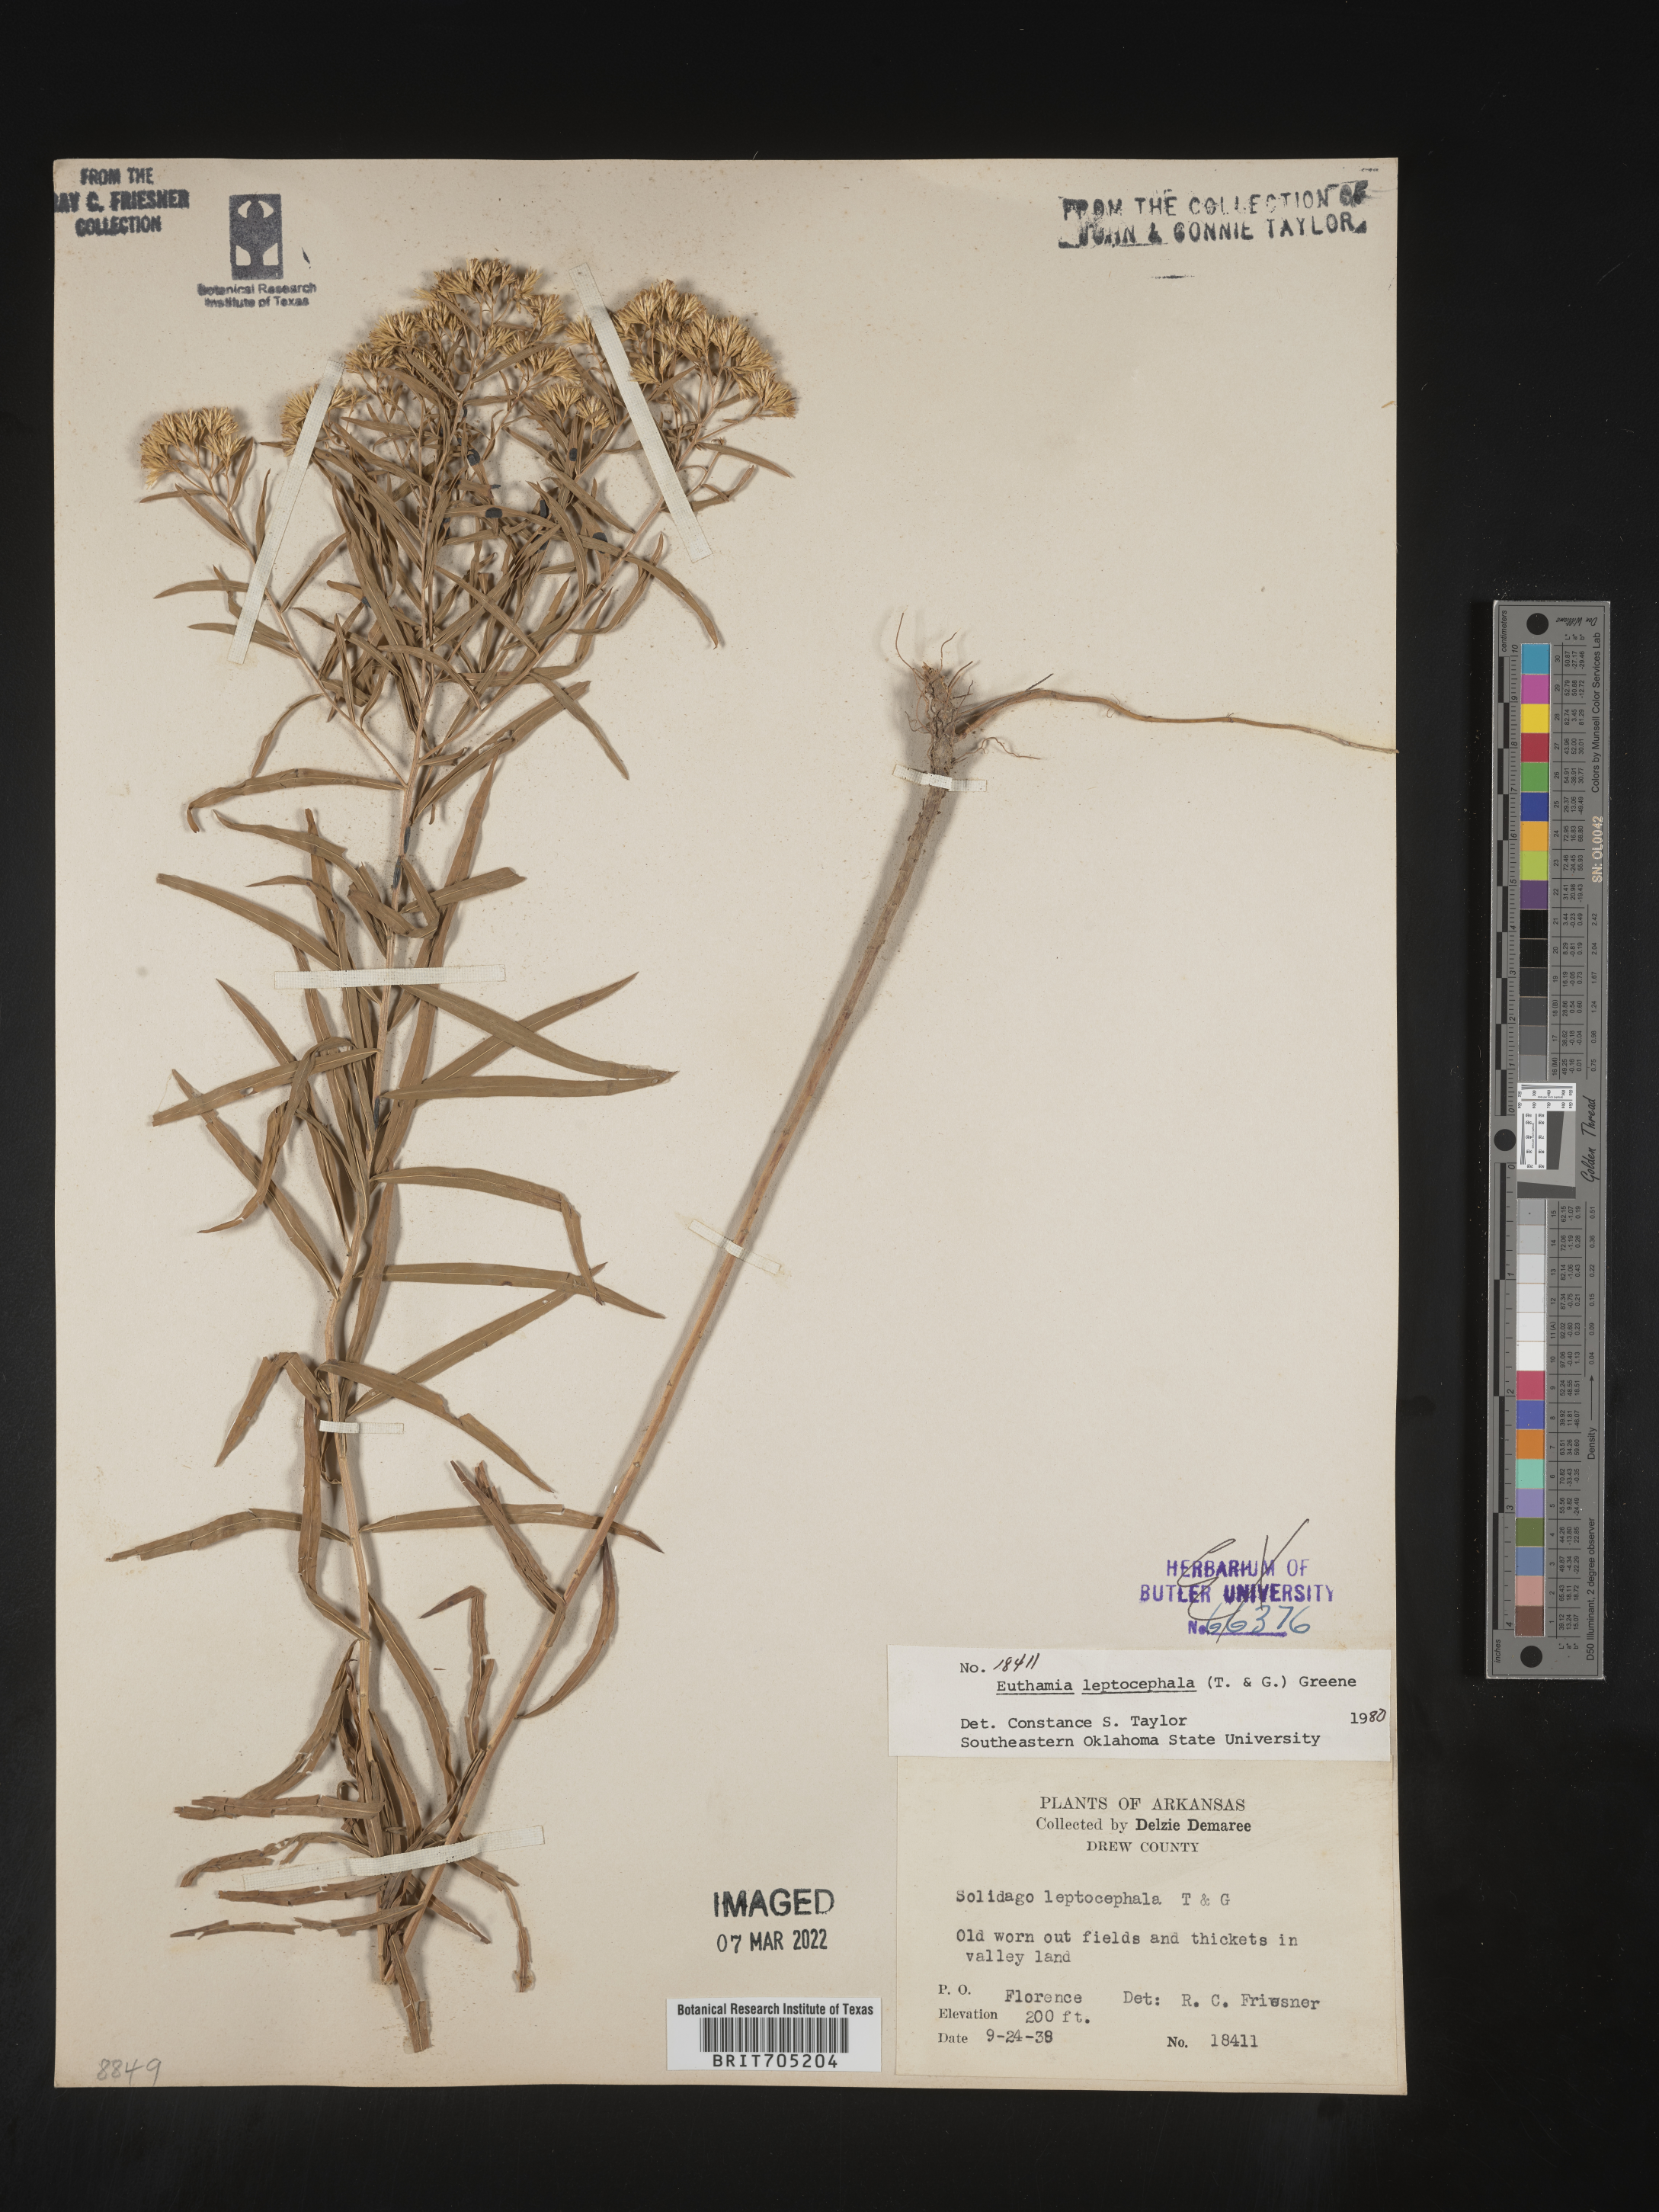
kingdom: Plantae
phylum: Tracheophyta
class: Magnoliopsida
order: Asterales
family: Asteraceae
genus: Euthamia
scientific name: Euthamia leptocephala
